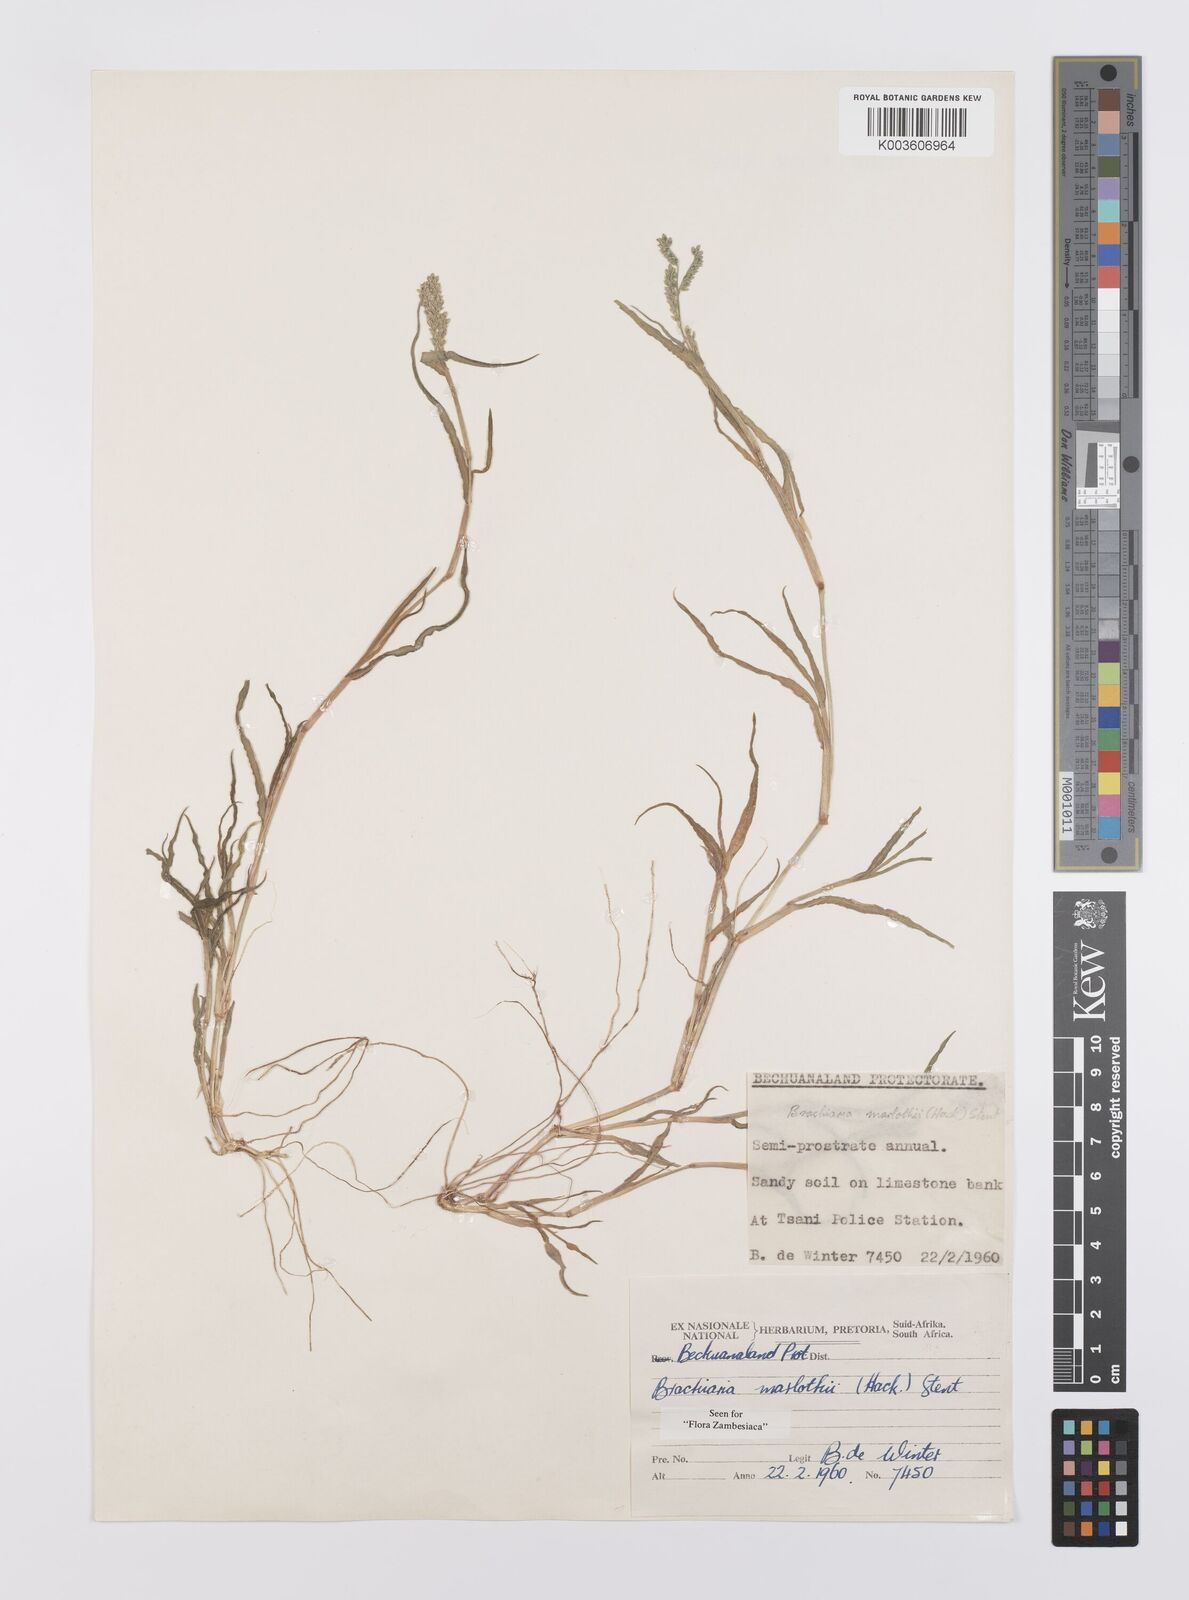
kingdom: Plantae
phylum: Tracheophyta
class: Liliopsida
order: Poales
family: Poaceae
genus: Urochloa
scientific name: Urochloa Brachiaria marlothii
